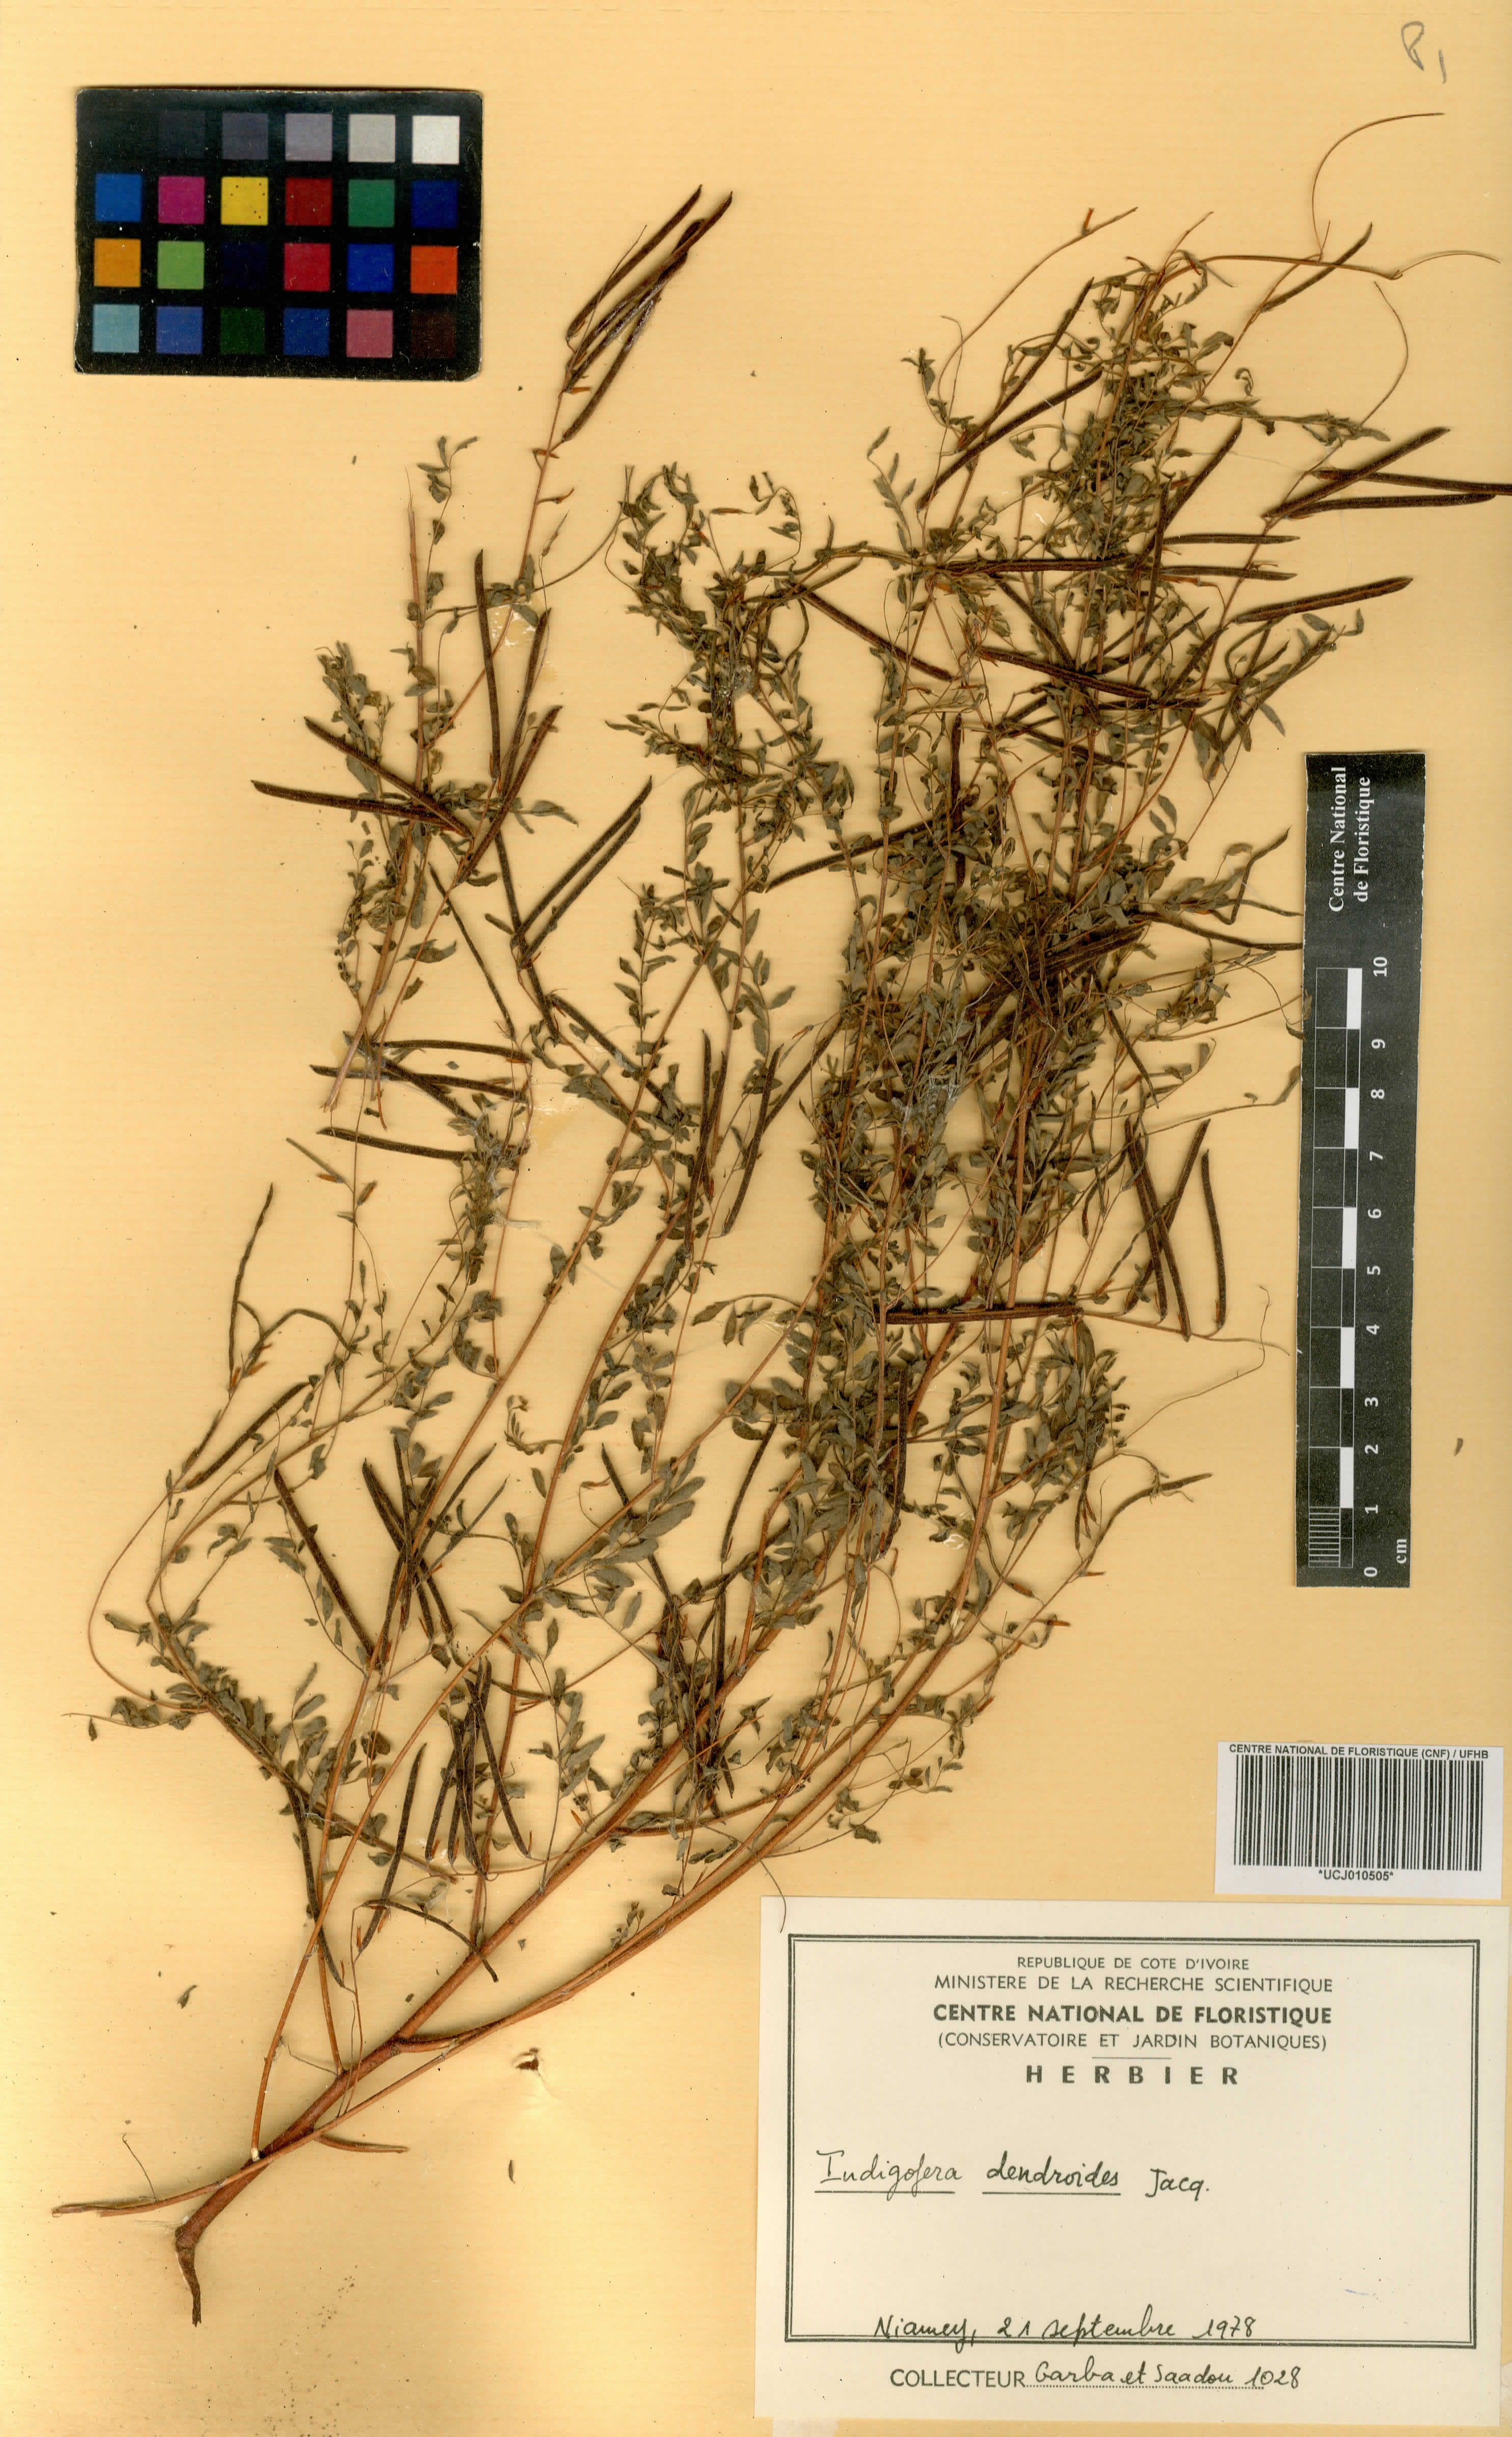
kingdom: Plantae
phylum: Tracheophyta
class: Magnoliopsida
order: Fabales
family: Fabaceae
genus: Indigofera
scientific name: Indigofera dendroides
